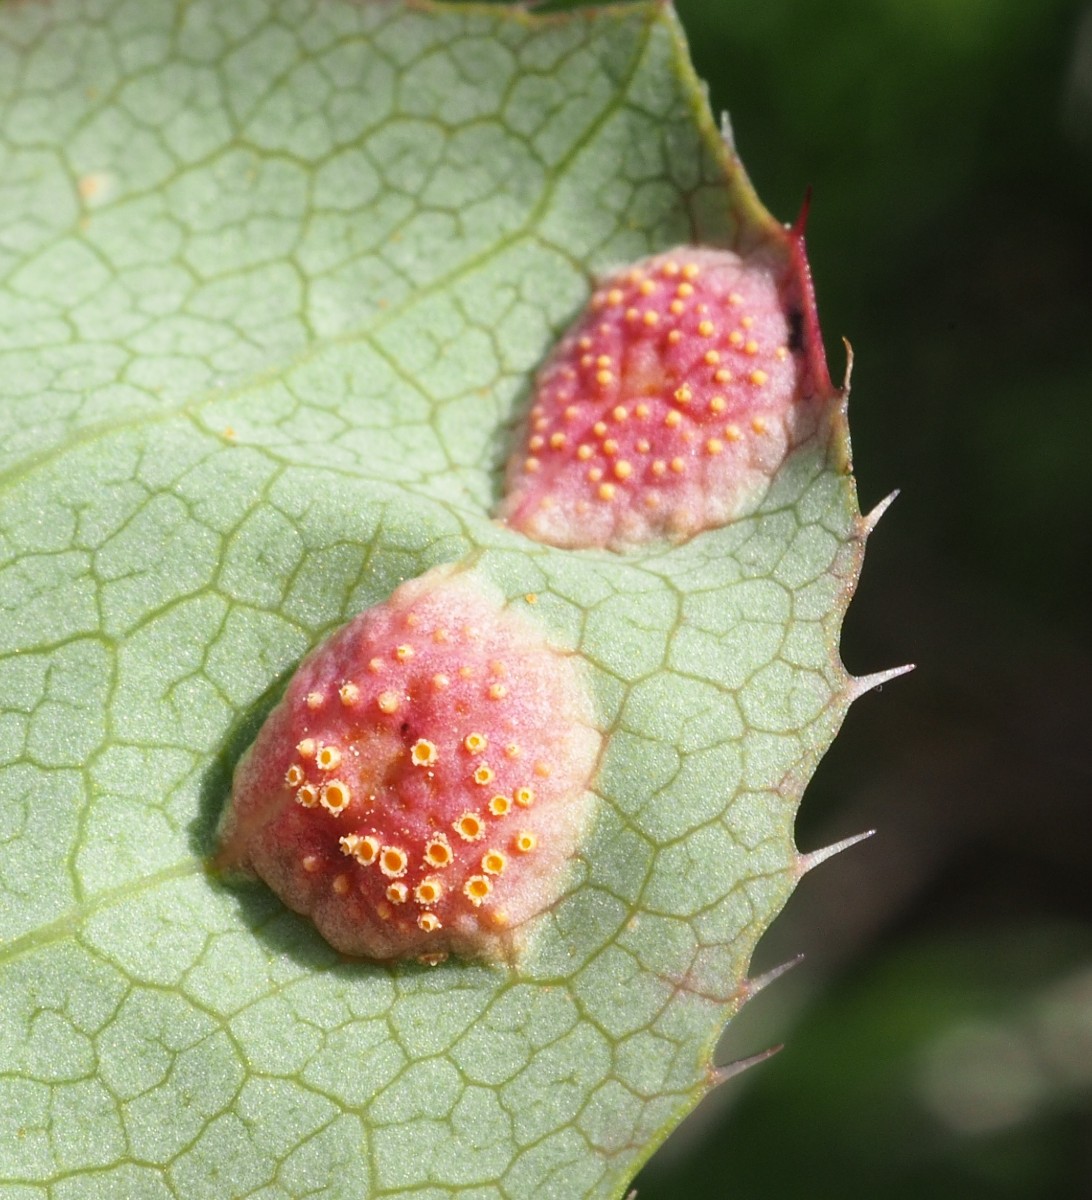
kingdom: Fungi
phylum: Basidiomycota
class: Pucciniomycetes
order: Pucciniales
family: Pucciniaceae
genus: Puccinia
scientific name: Puccinia graminis
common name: græssernes tvecellerust
